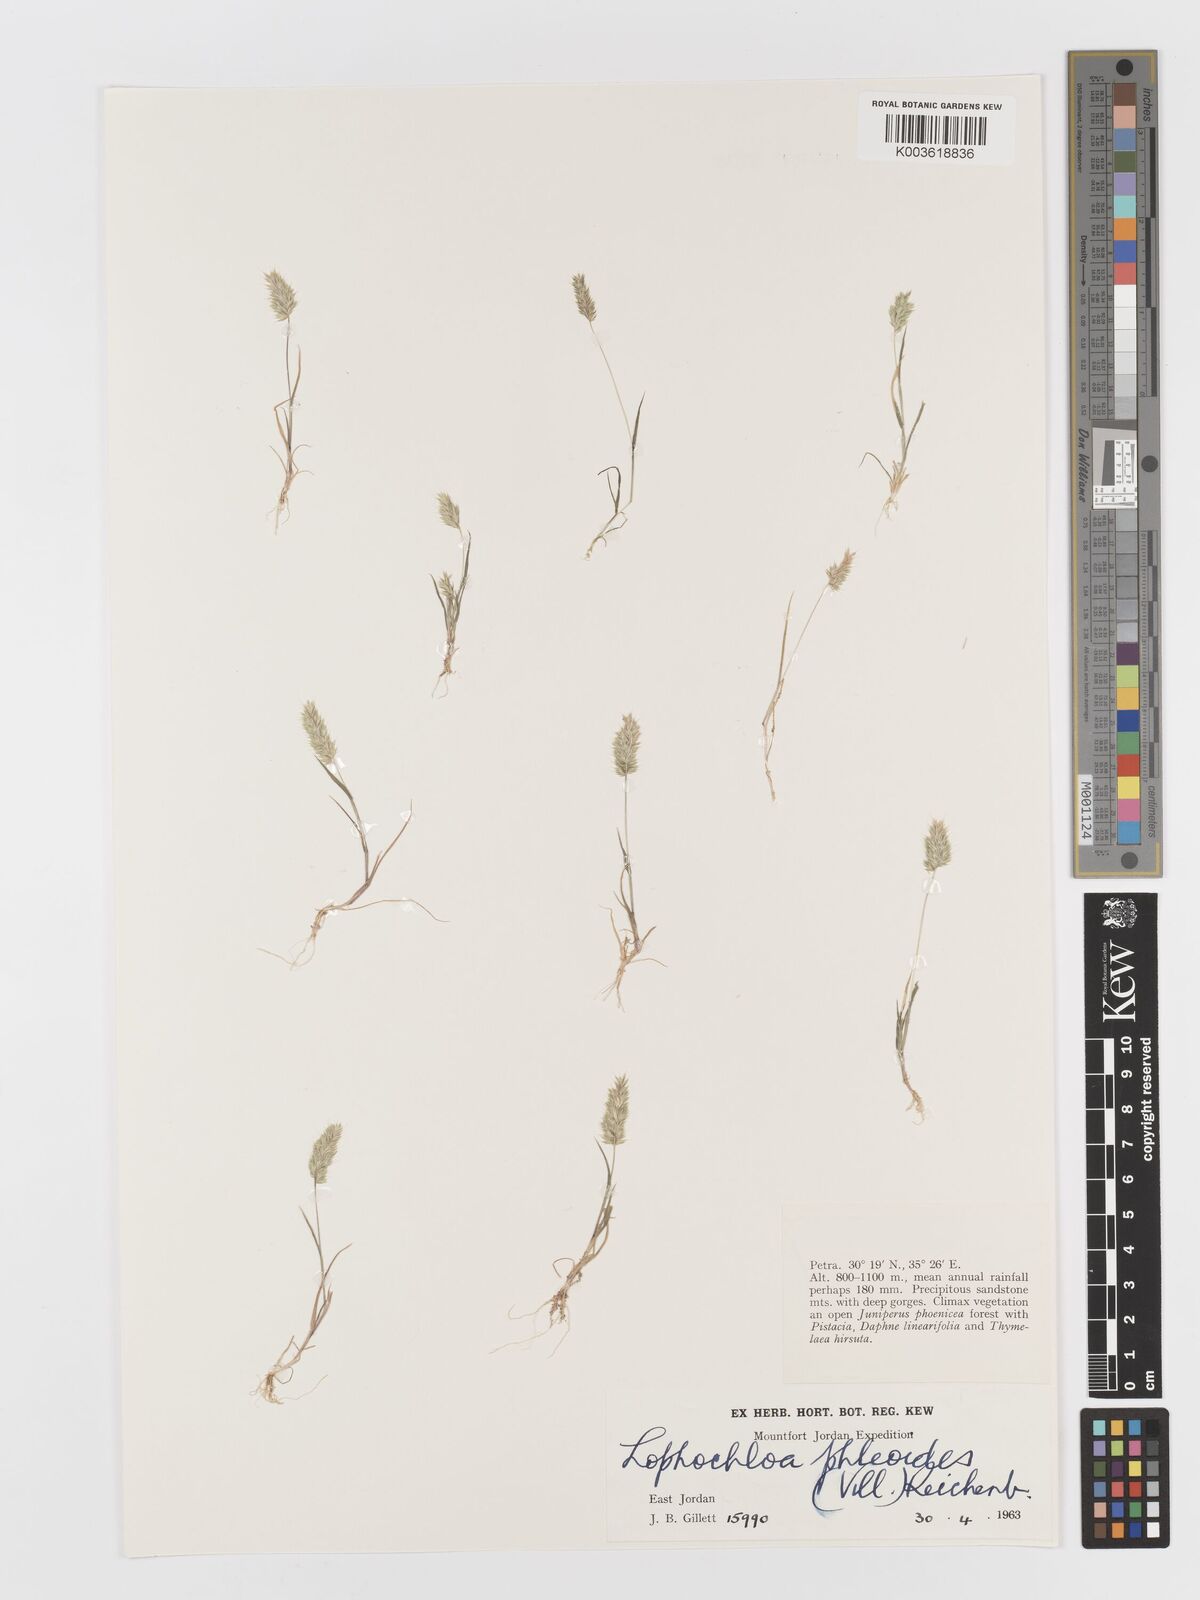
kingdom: Plantae
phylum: Tracheophyta
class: Liliopsida
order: Poales
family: Poaceae
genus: Rostraria
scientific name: Rostraria cristata
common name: Mediterranean hair-grass
